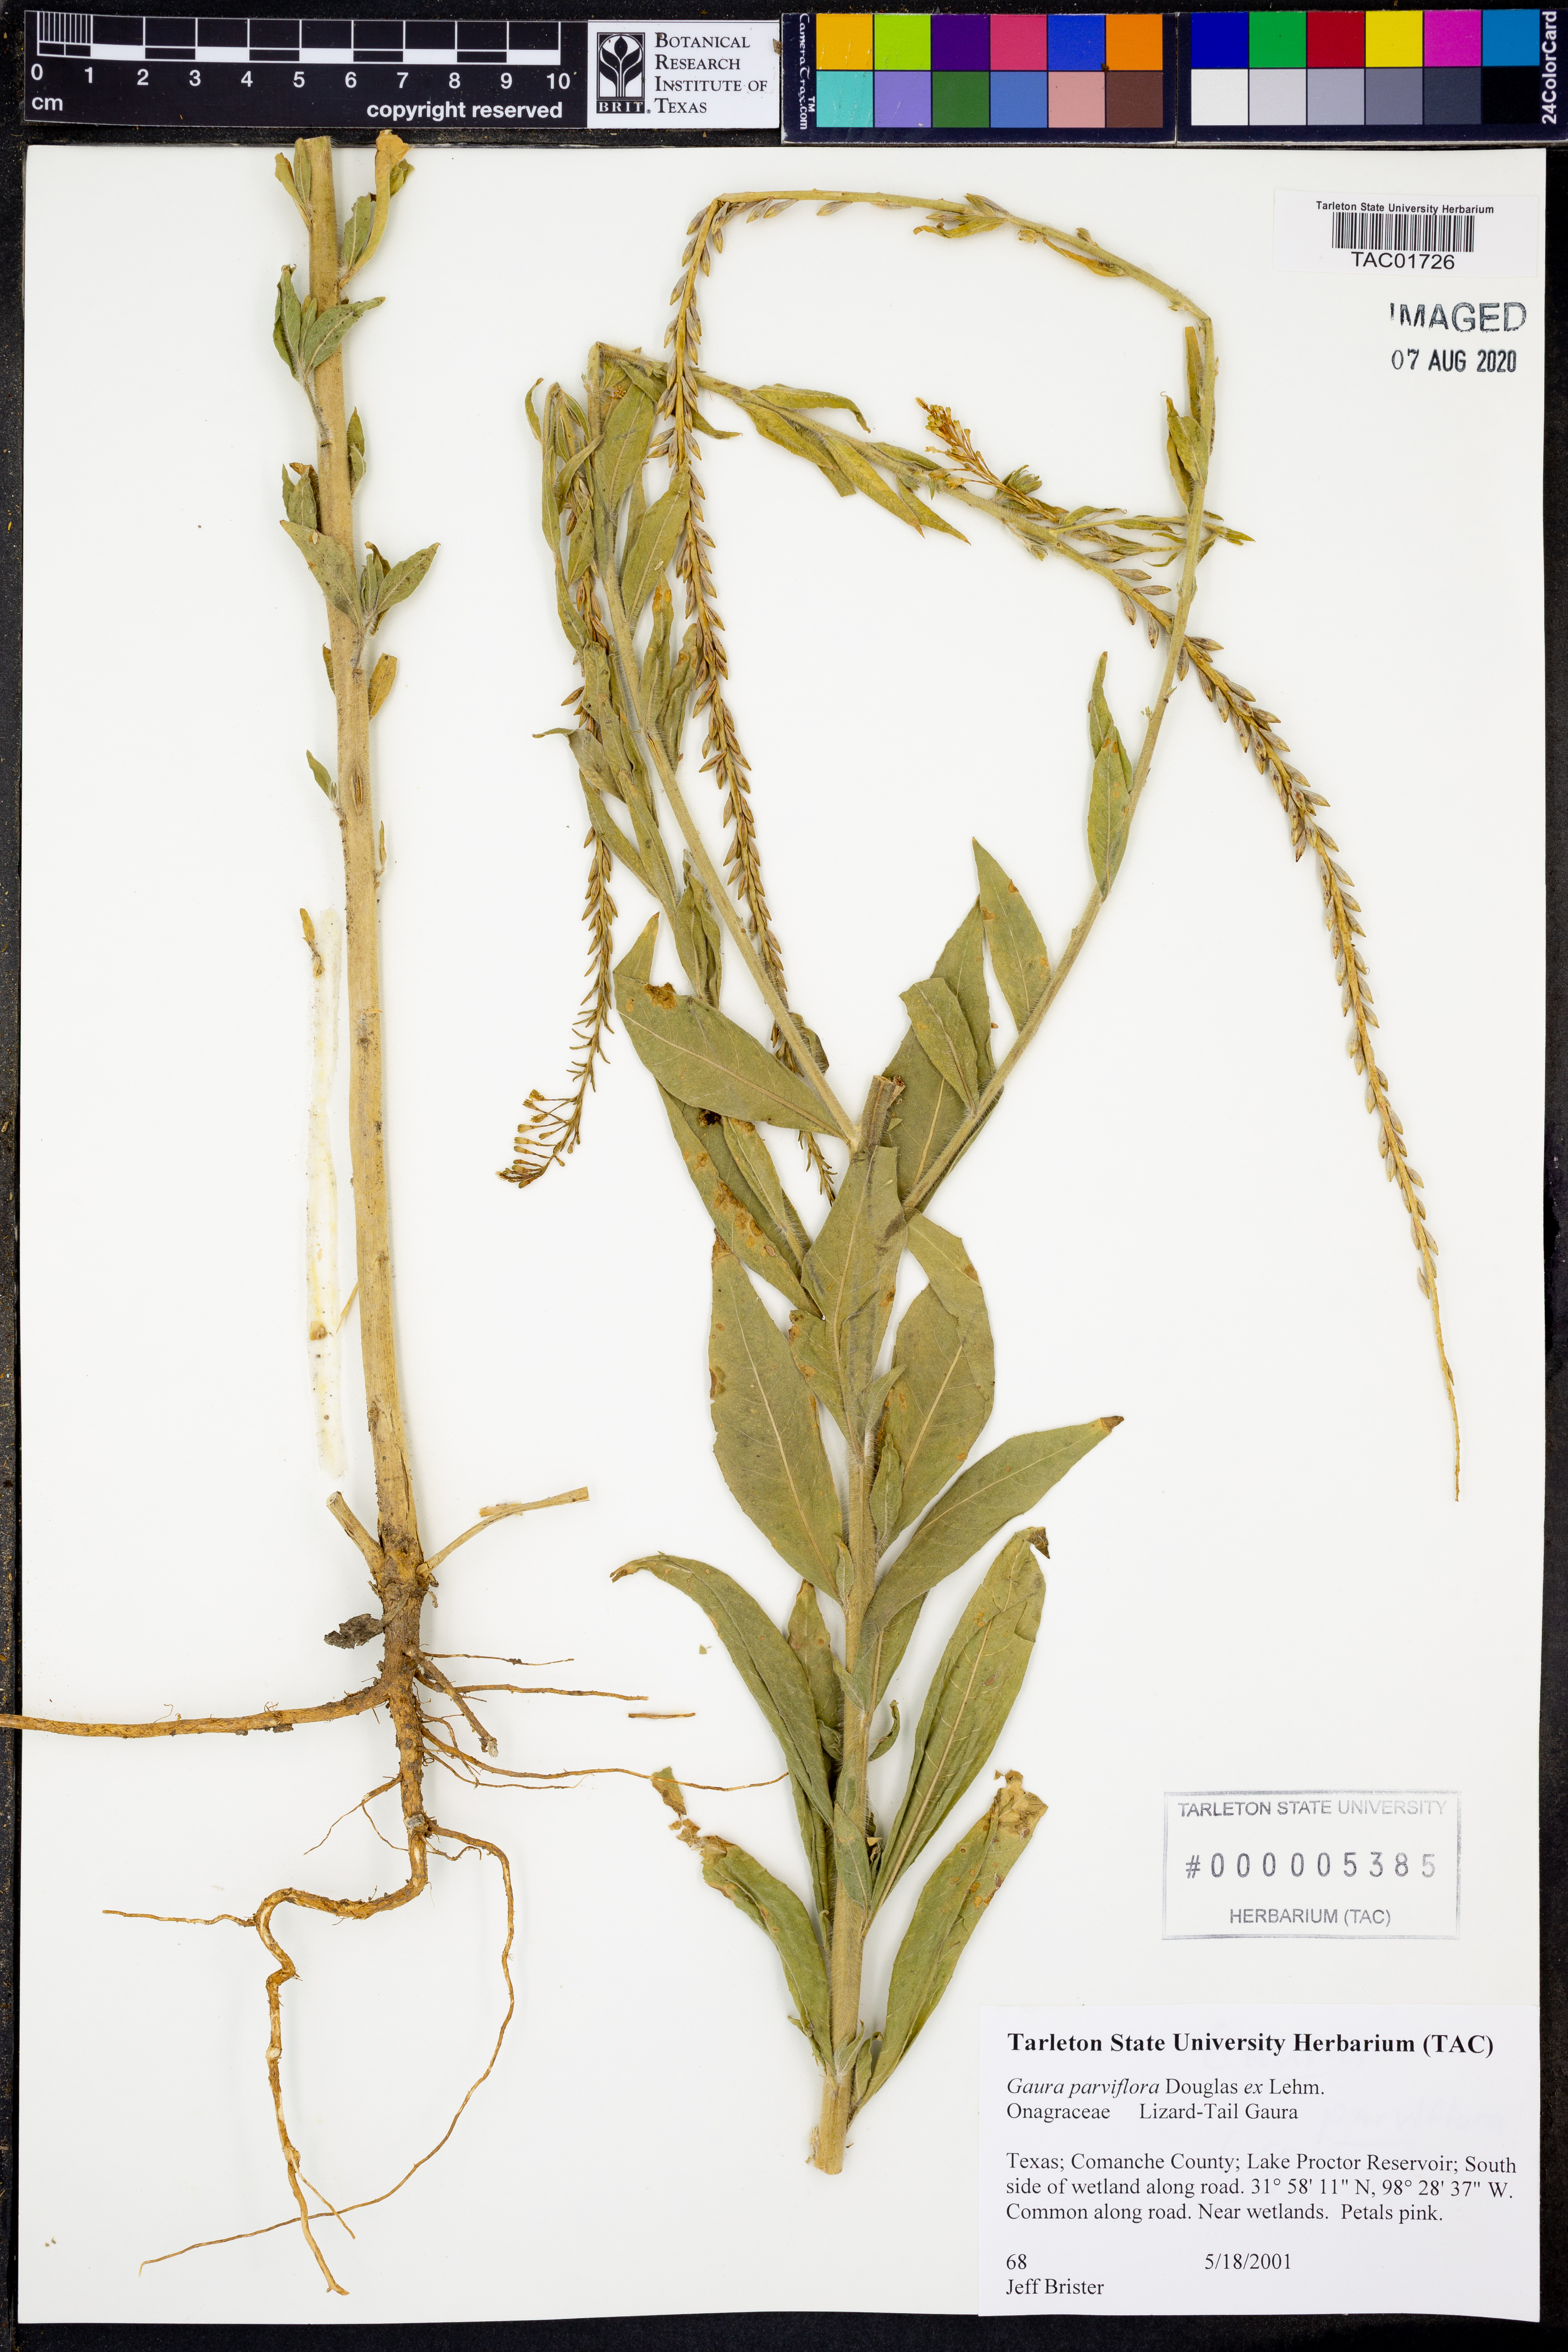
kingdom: Plantae
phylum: Tracheophyta
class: Magnoliopsida
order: Myrtales
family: Onagraceae
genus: Oenothera
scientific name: Oenothera curtiflora
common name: Velvetweed
